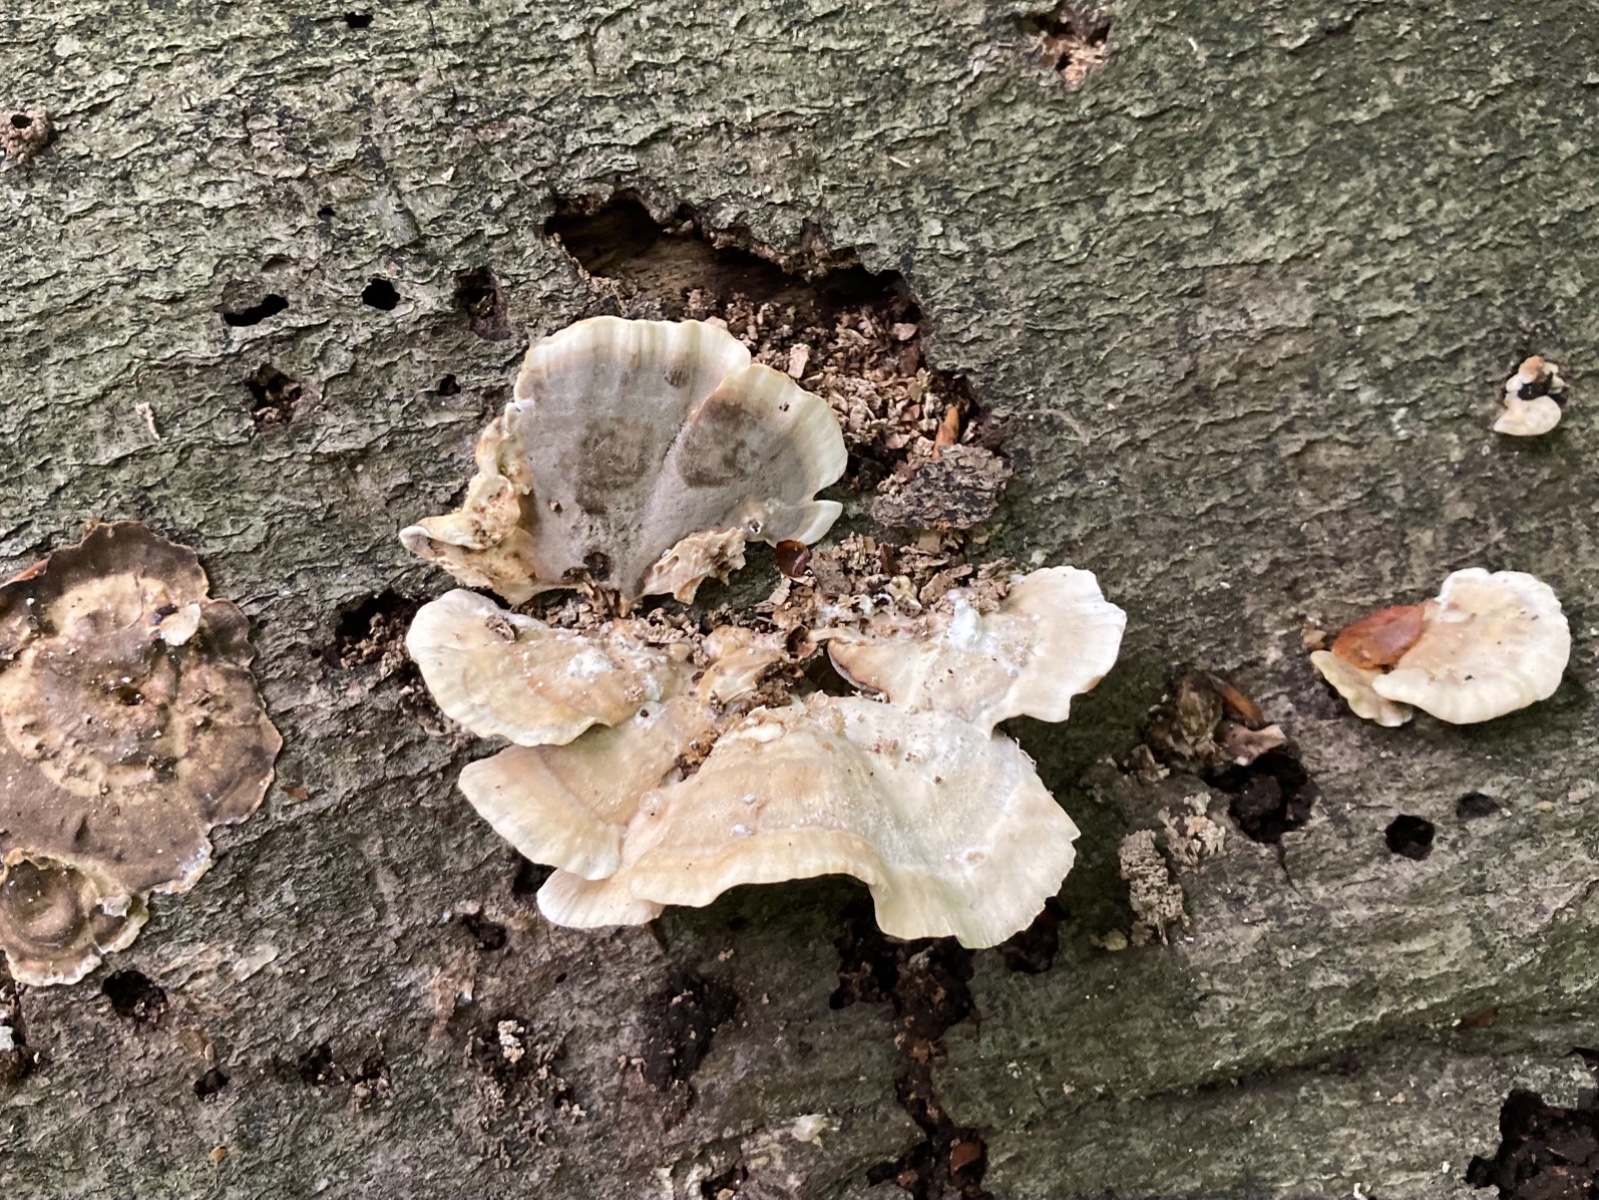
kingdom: Fungi
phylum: Basidiomycota
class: Agaricomycetes
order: Polyporales
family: Phanerochaetaceae
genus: Bjerkandera
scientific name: Bjerkandera adusta
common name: sveden sodporesvamp
